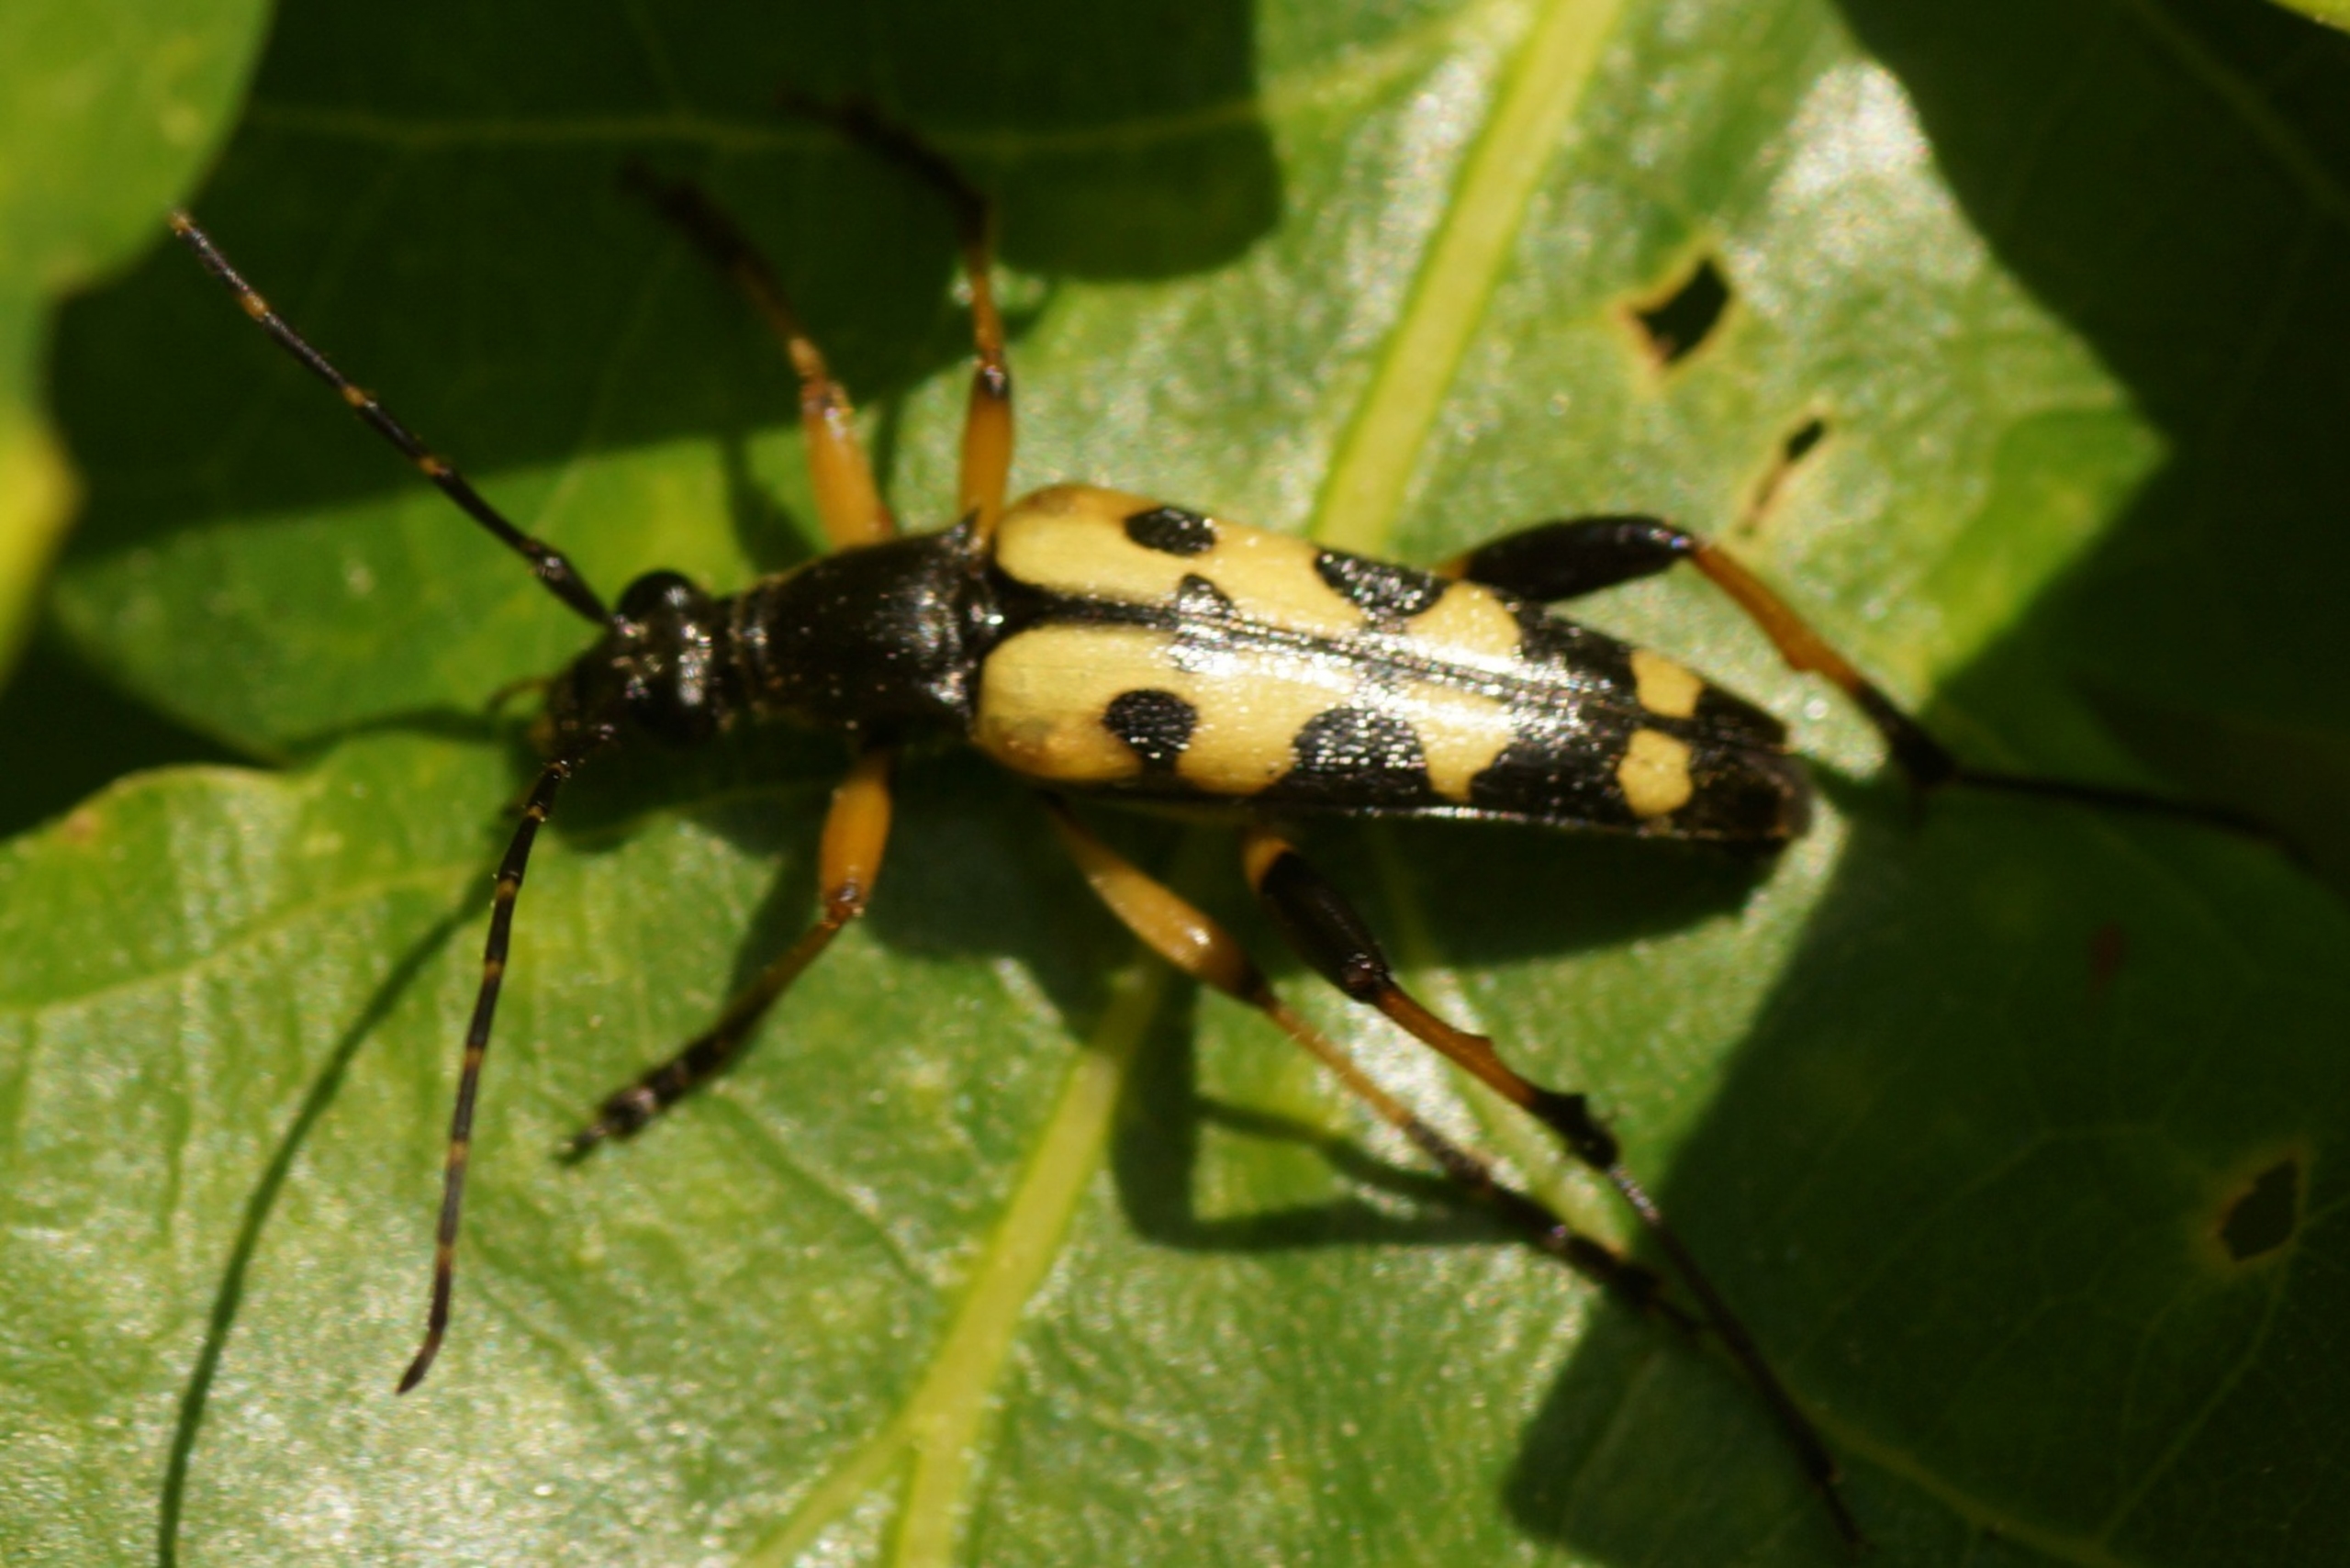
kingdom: Animalia
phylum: Arthropoda
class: Insecta
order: Coleoptera
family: Cerambycidae
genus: Rutpela
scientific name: Rutpela maculata
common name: Sydlig blomsterbuk
